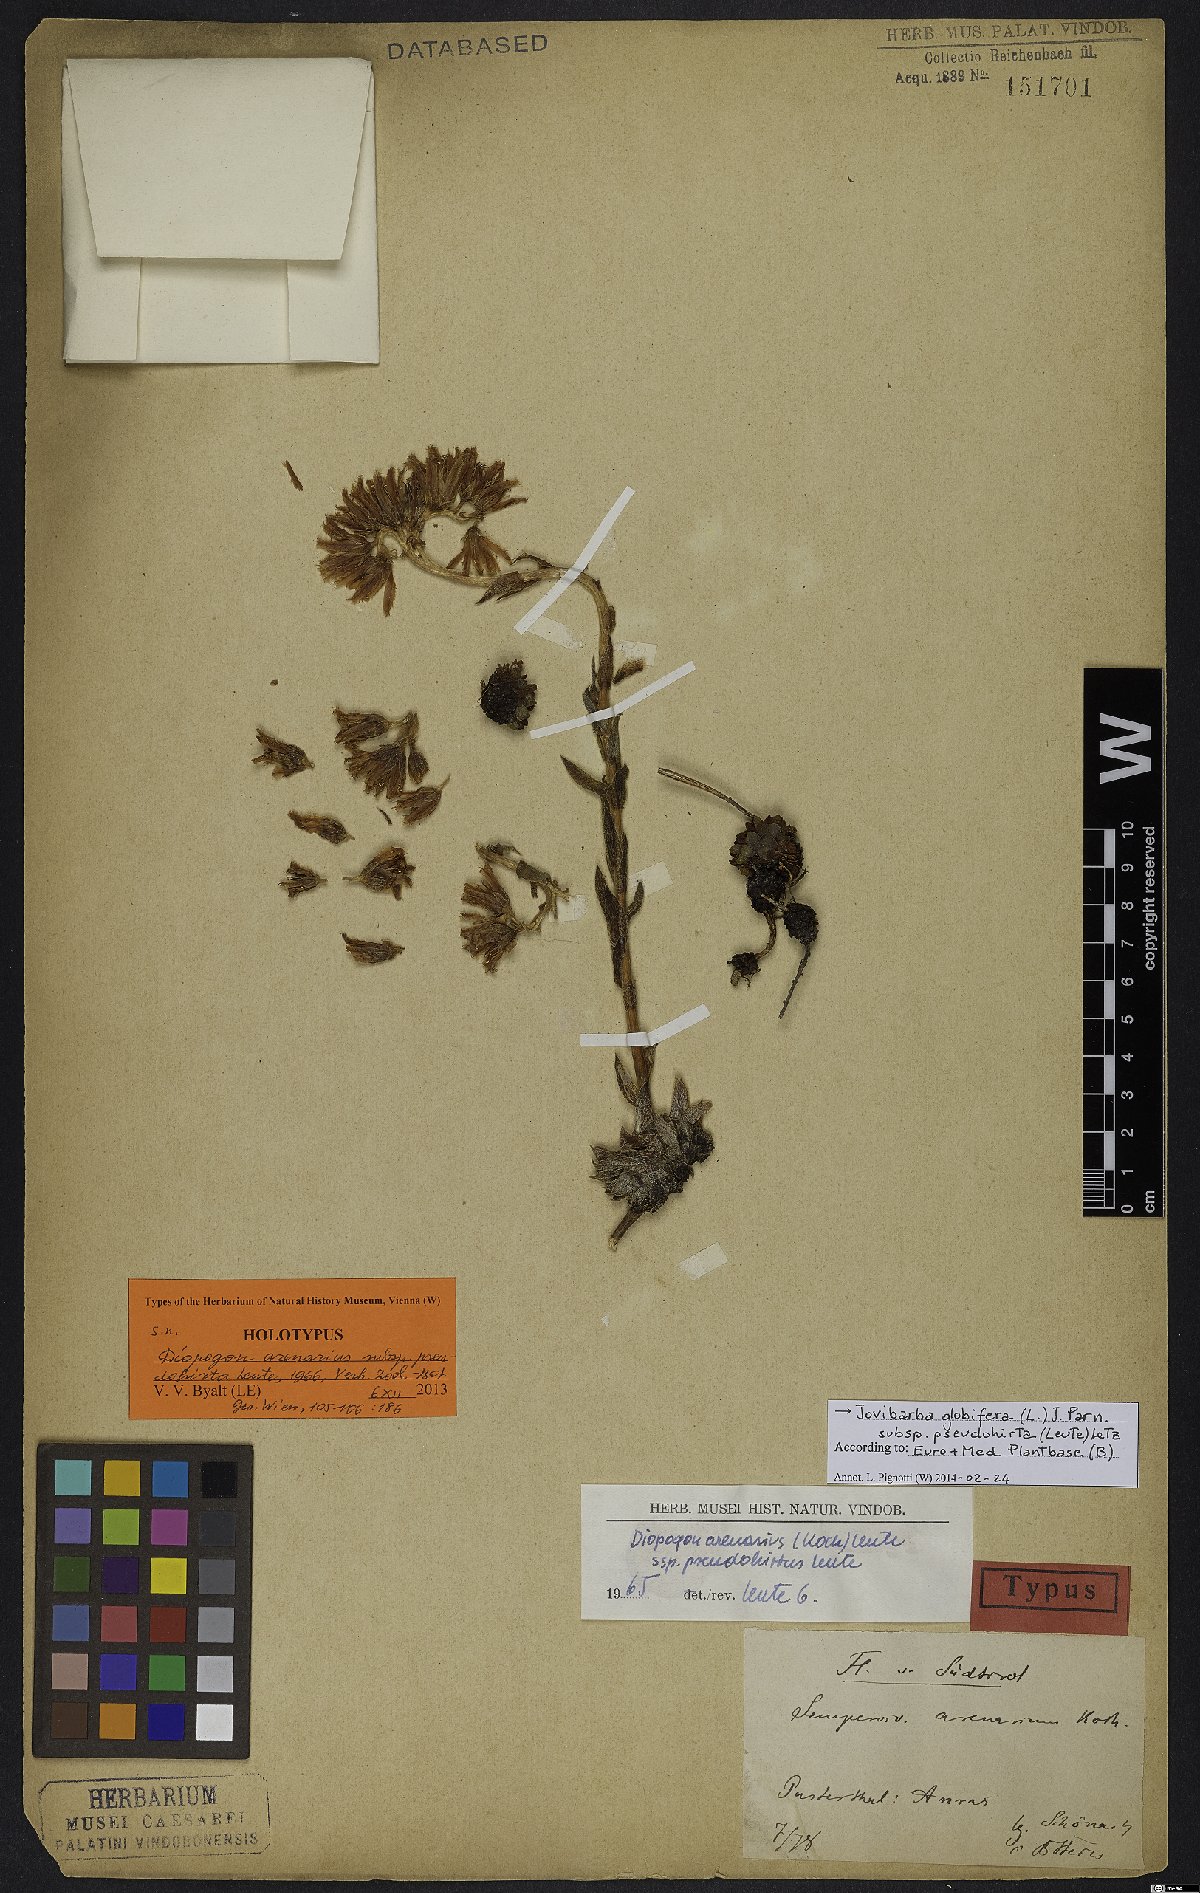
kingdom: Plantae
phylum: Tracheophyta
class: Magnoliopsida
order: Saxifragales
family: Crassulaceae
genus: Sempervivum
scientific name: Sempervivum globiferum
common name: Rolling hen-and-chicks
